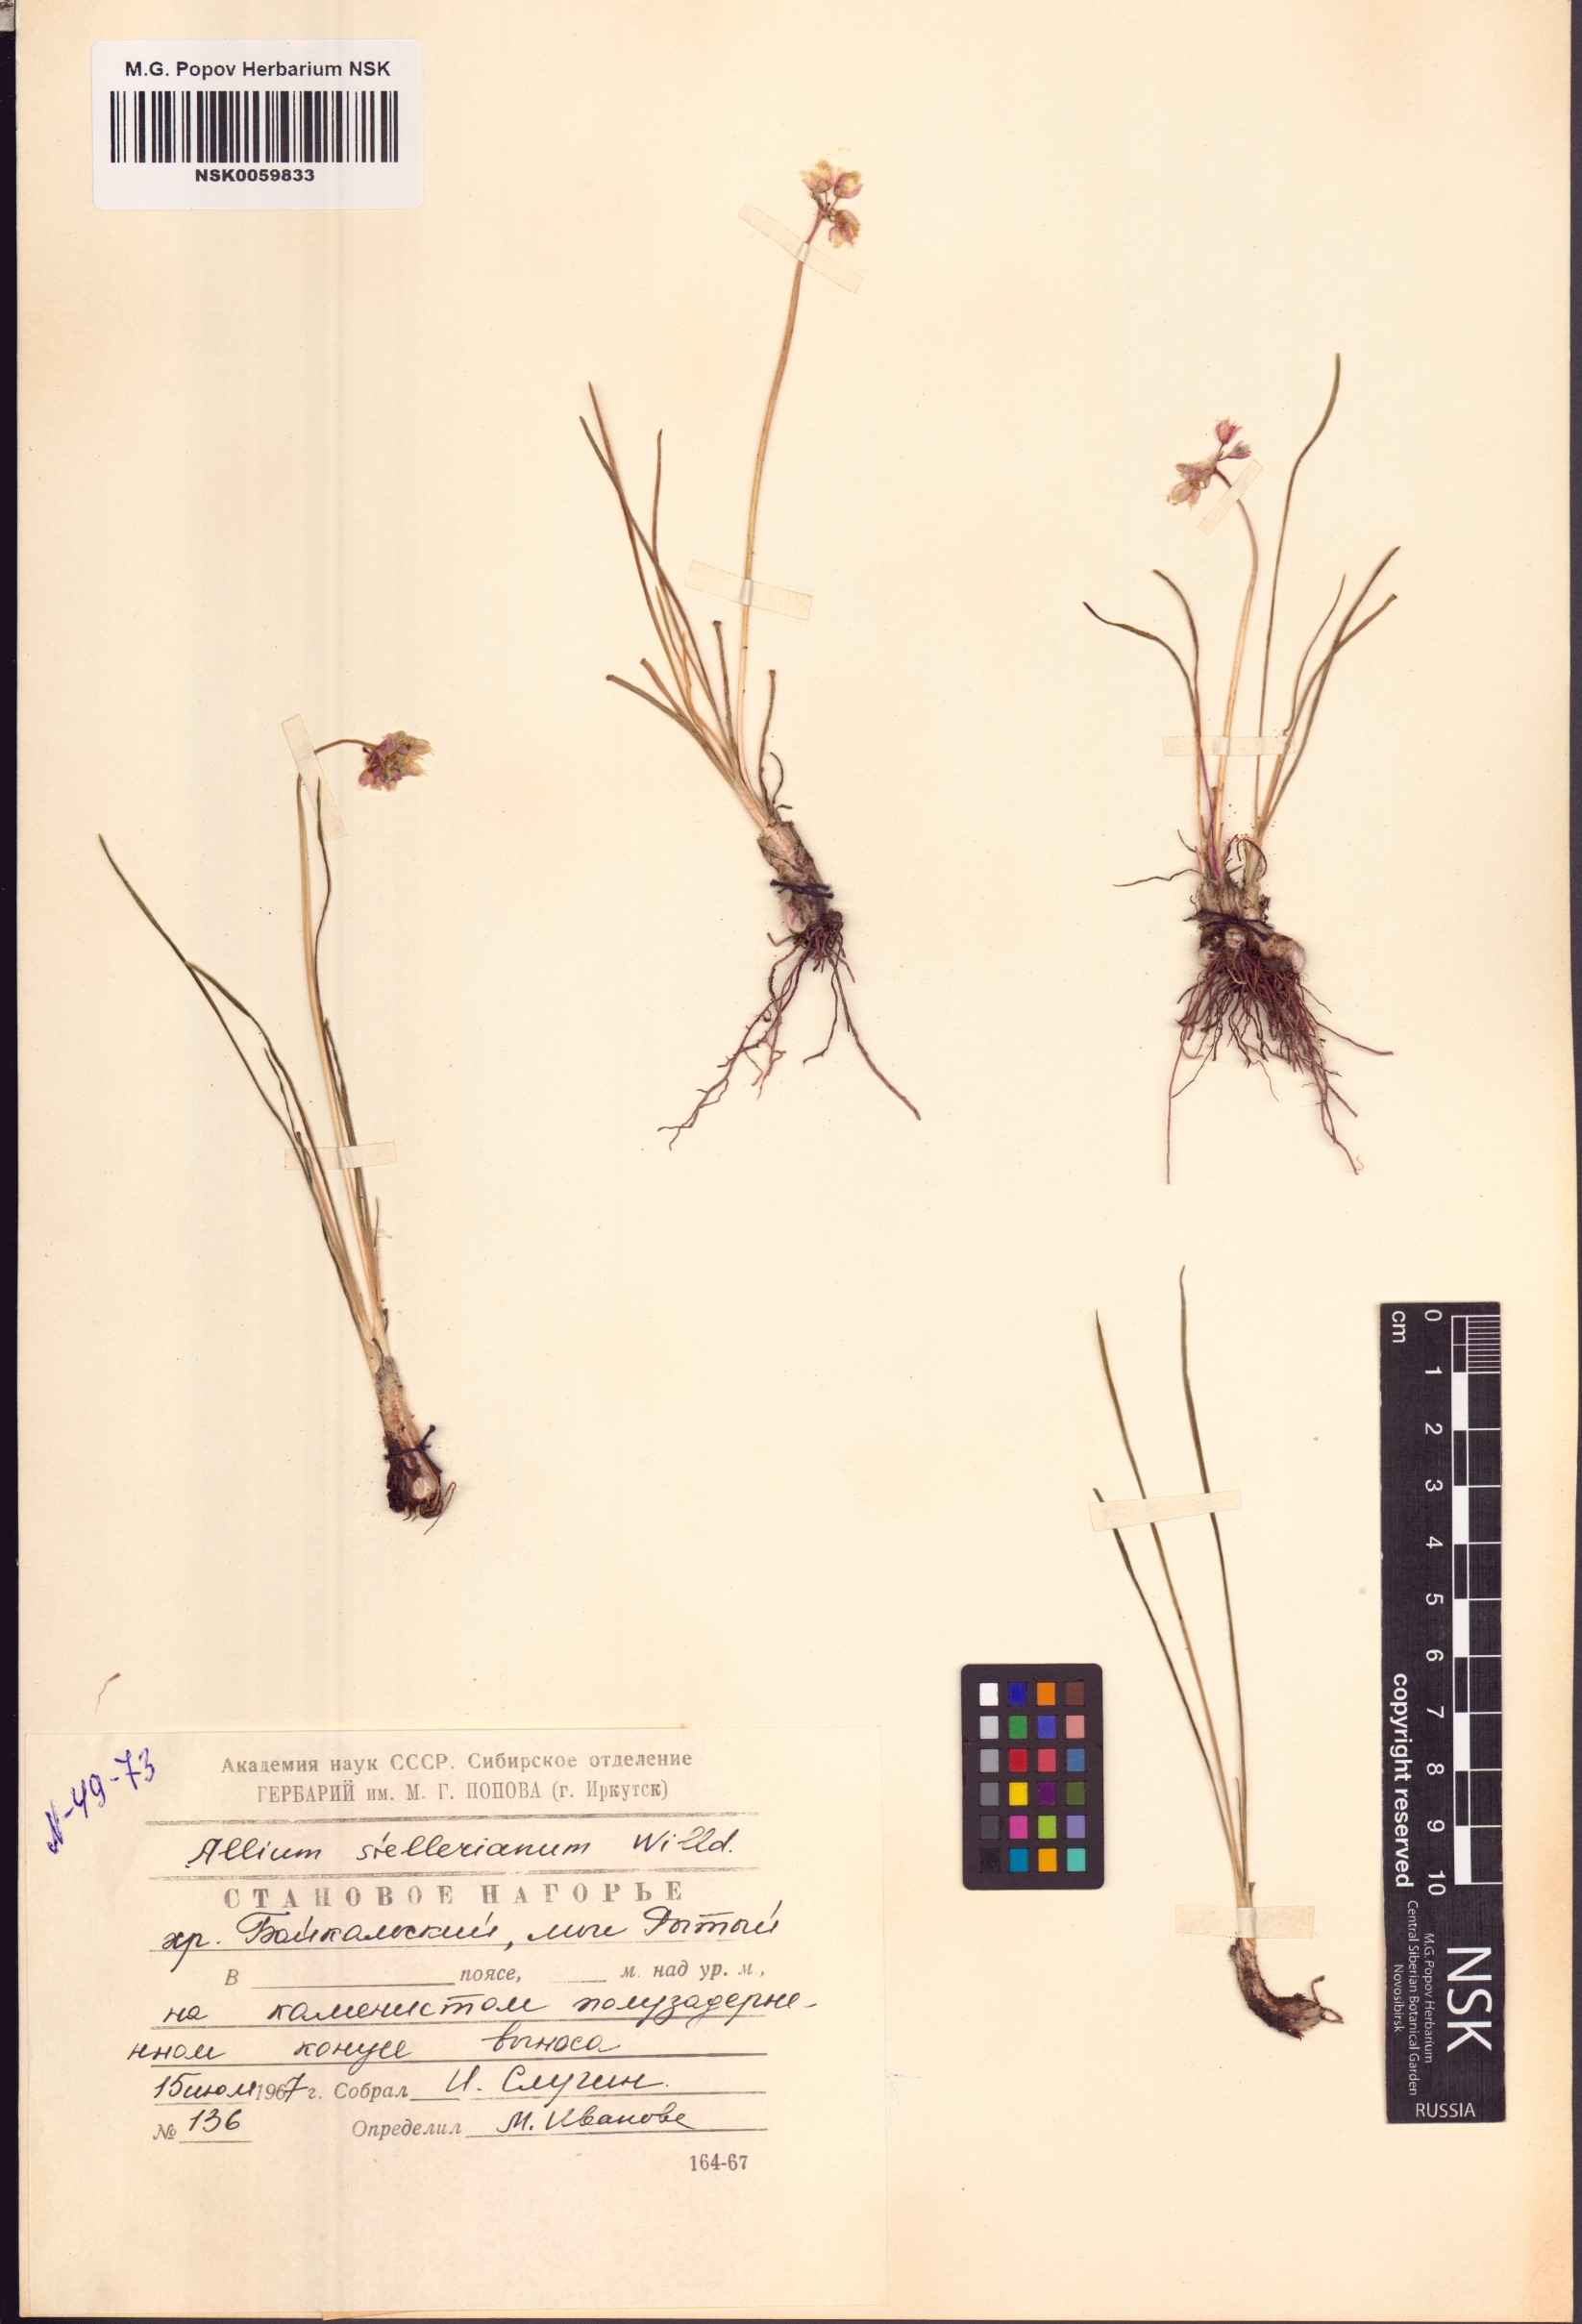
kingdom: Plantae
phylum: Tracheophyta
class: Liliopsida
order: Asparagales
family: Amaryllidaceae
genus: Allium
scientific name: Allium stellerianum
